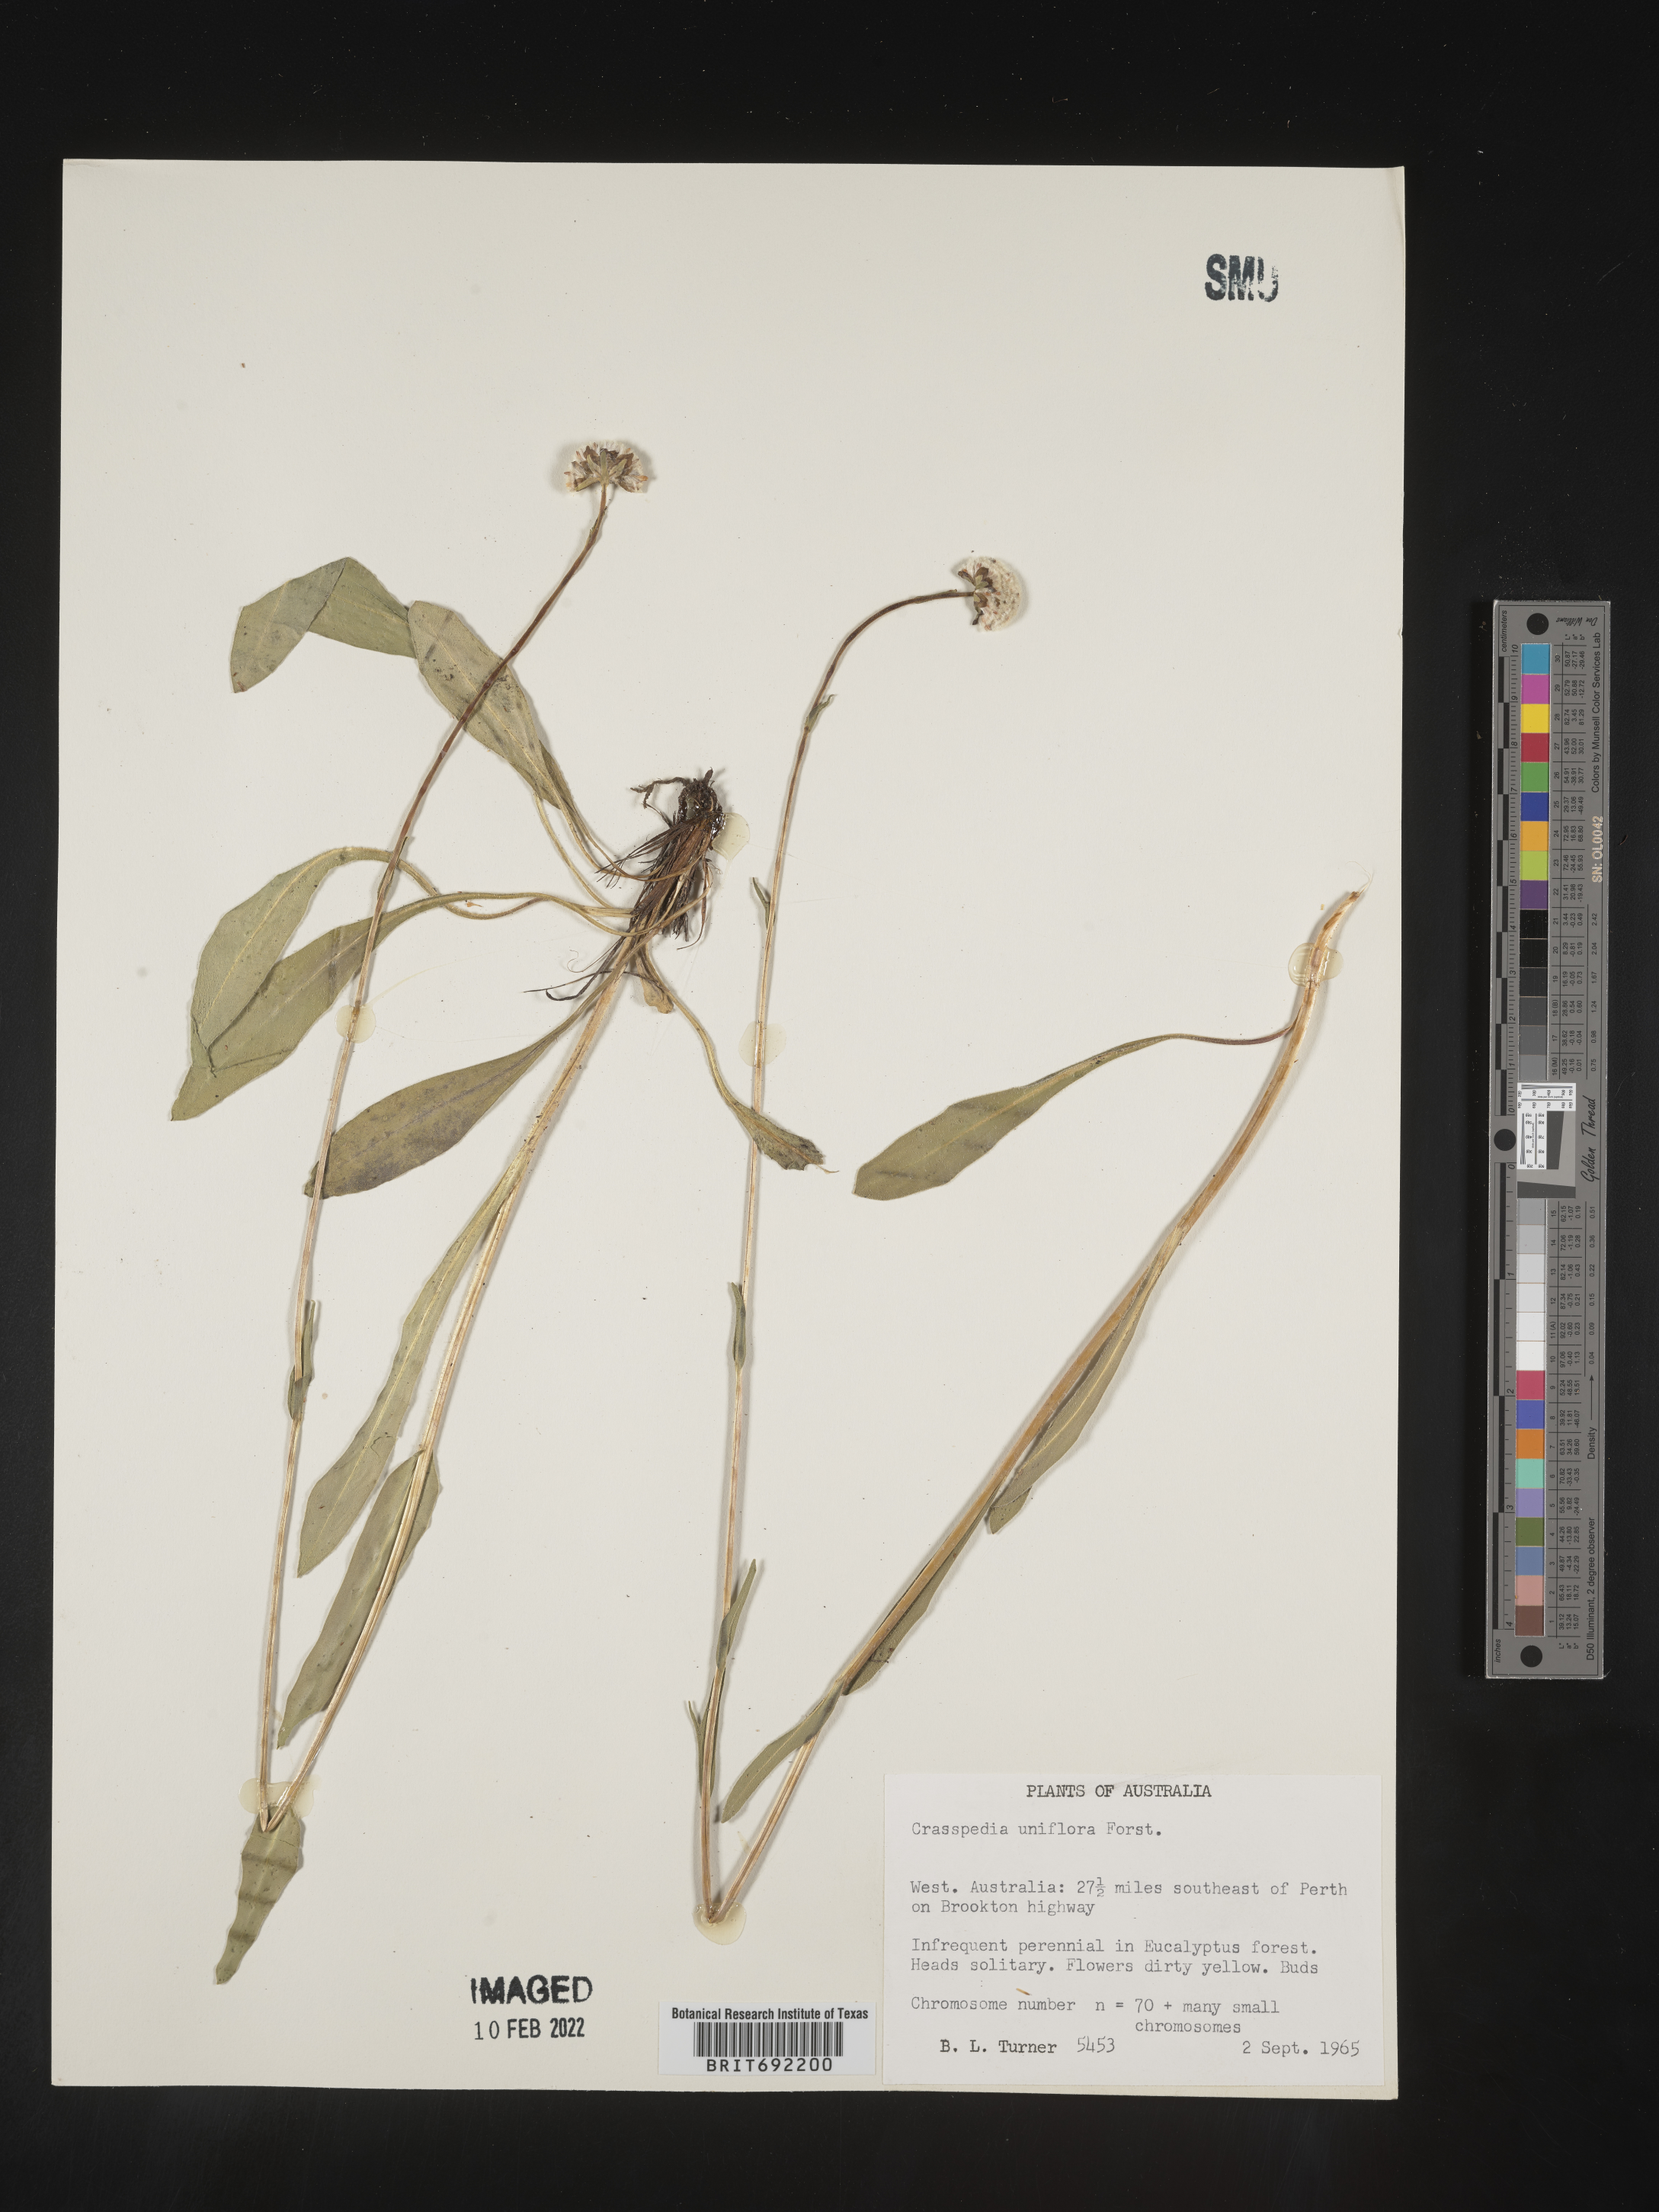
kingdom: Plantae
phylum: Tracheophyta
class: Magnoliopsida
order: Asterales
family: Asteraceae
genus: Craspedia
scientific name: Craspedia
